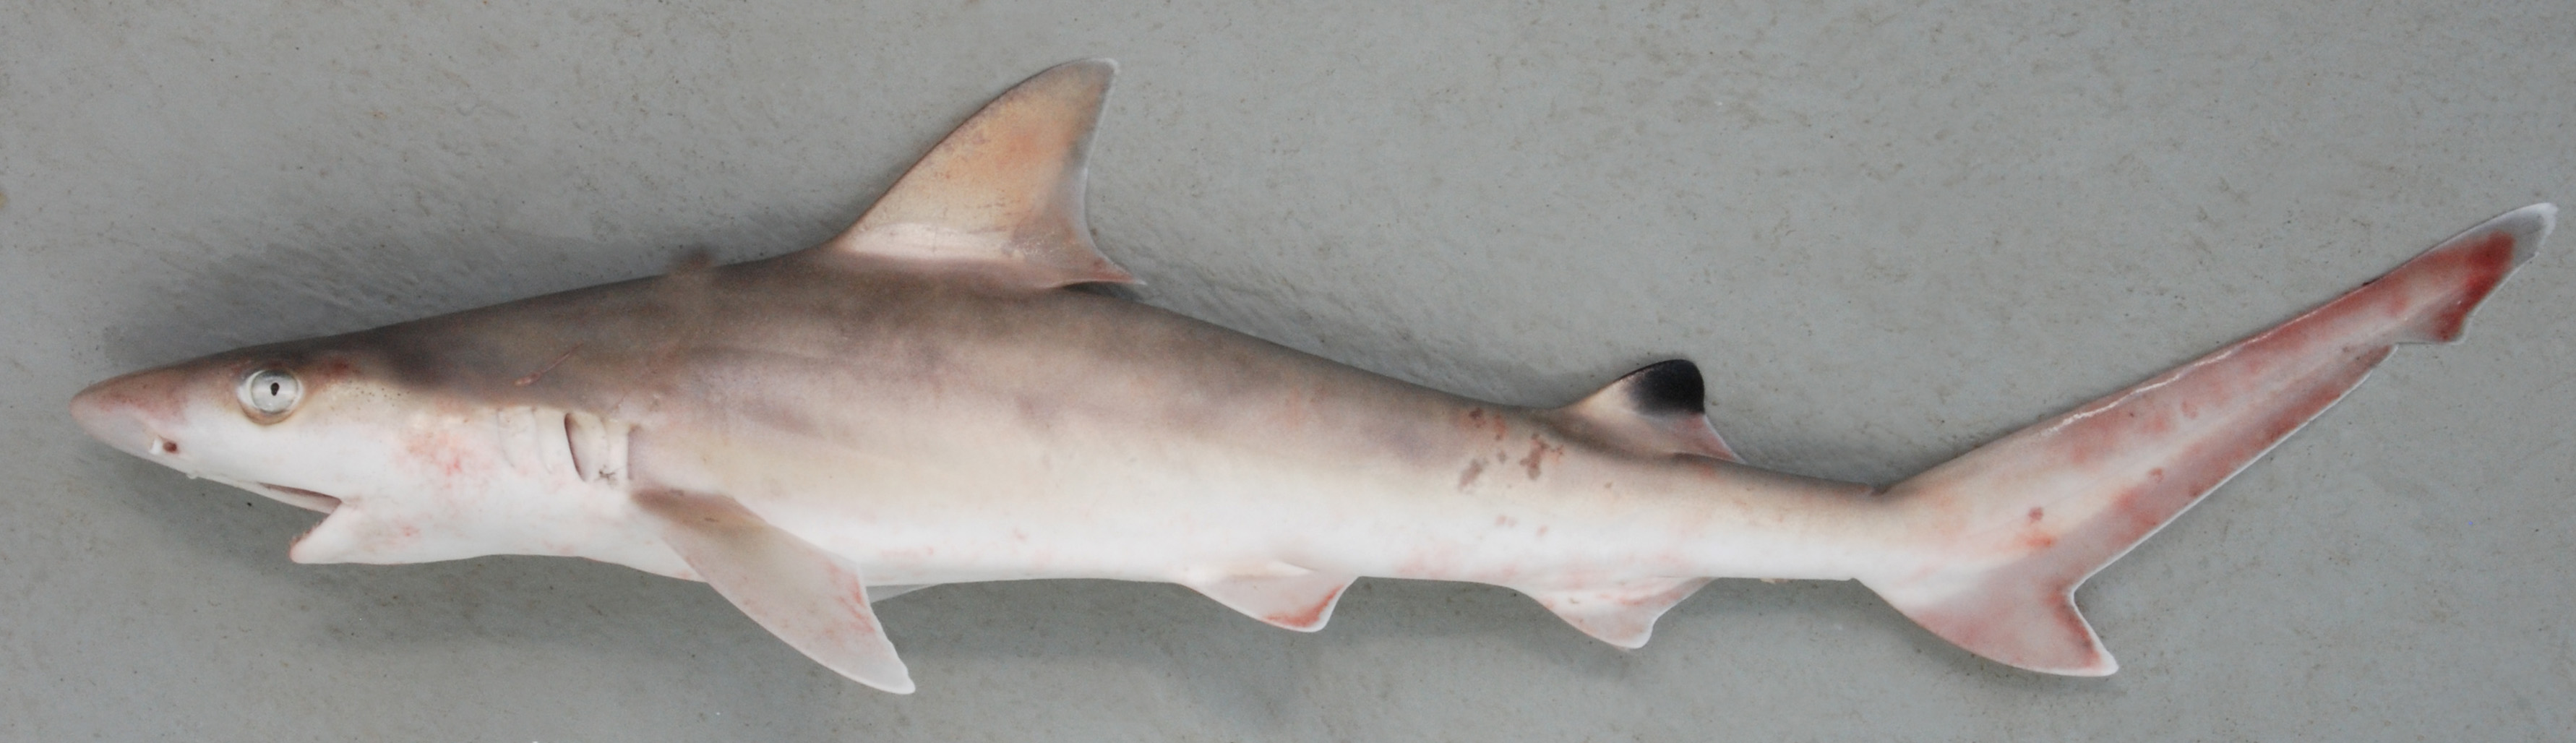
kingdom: Animalia
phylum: Chordata
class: Elasmobranchii
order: Carcharhiniformes
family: Carcharhinidae
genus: Carcharhinus
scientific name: Carcharhinus sealei
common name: Blackspot shark
